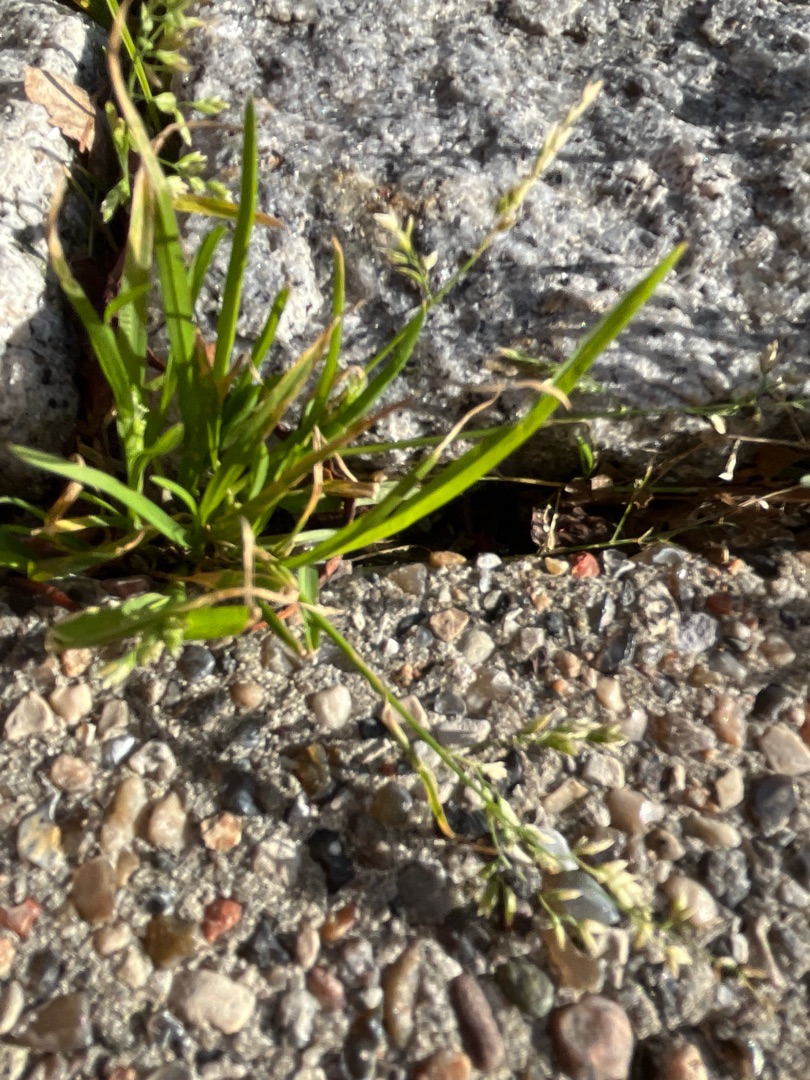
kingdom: Plantae
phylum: Tracheophyta
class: Liliopsida
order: Poales
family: Poaceae
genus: Poa
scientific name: Poa annua
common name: Enårig rapgræs
